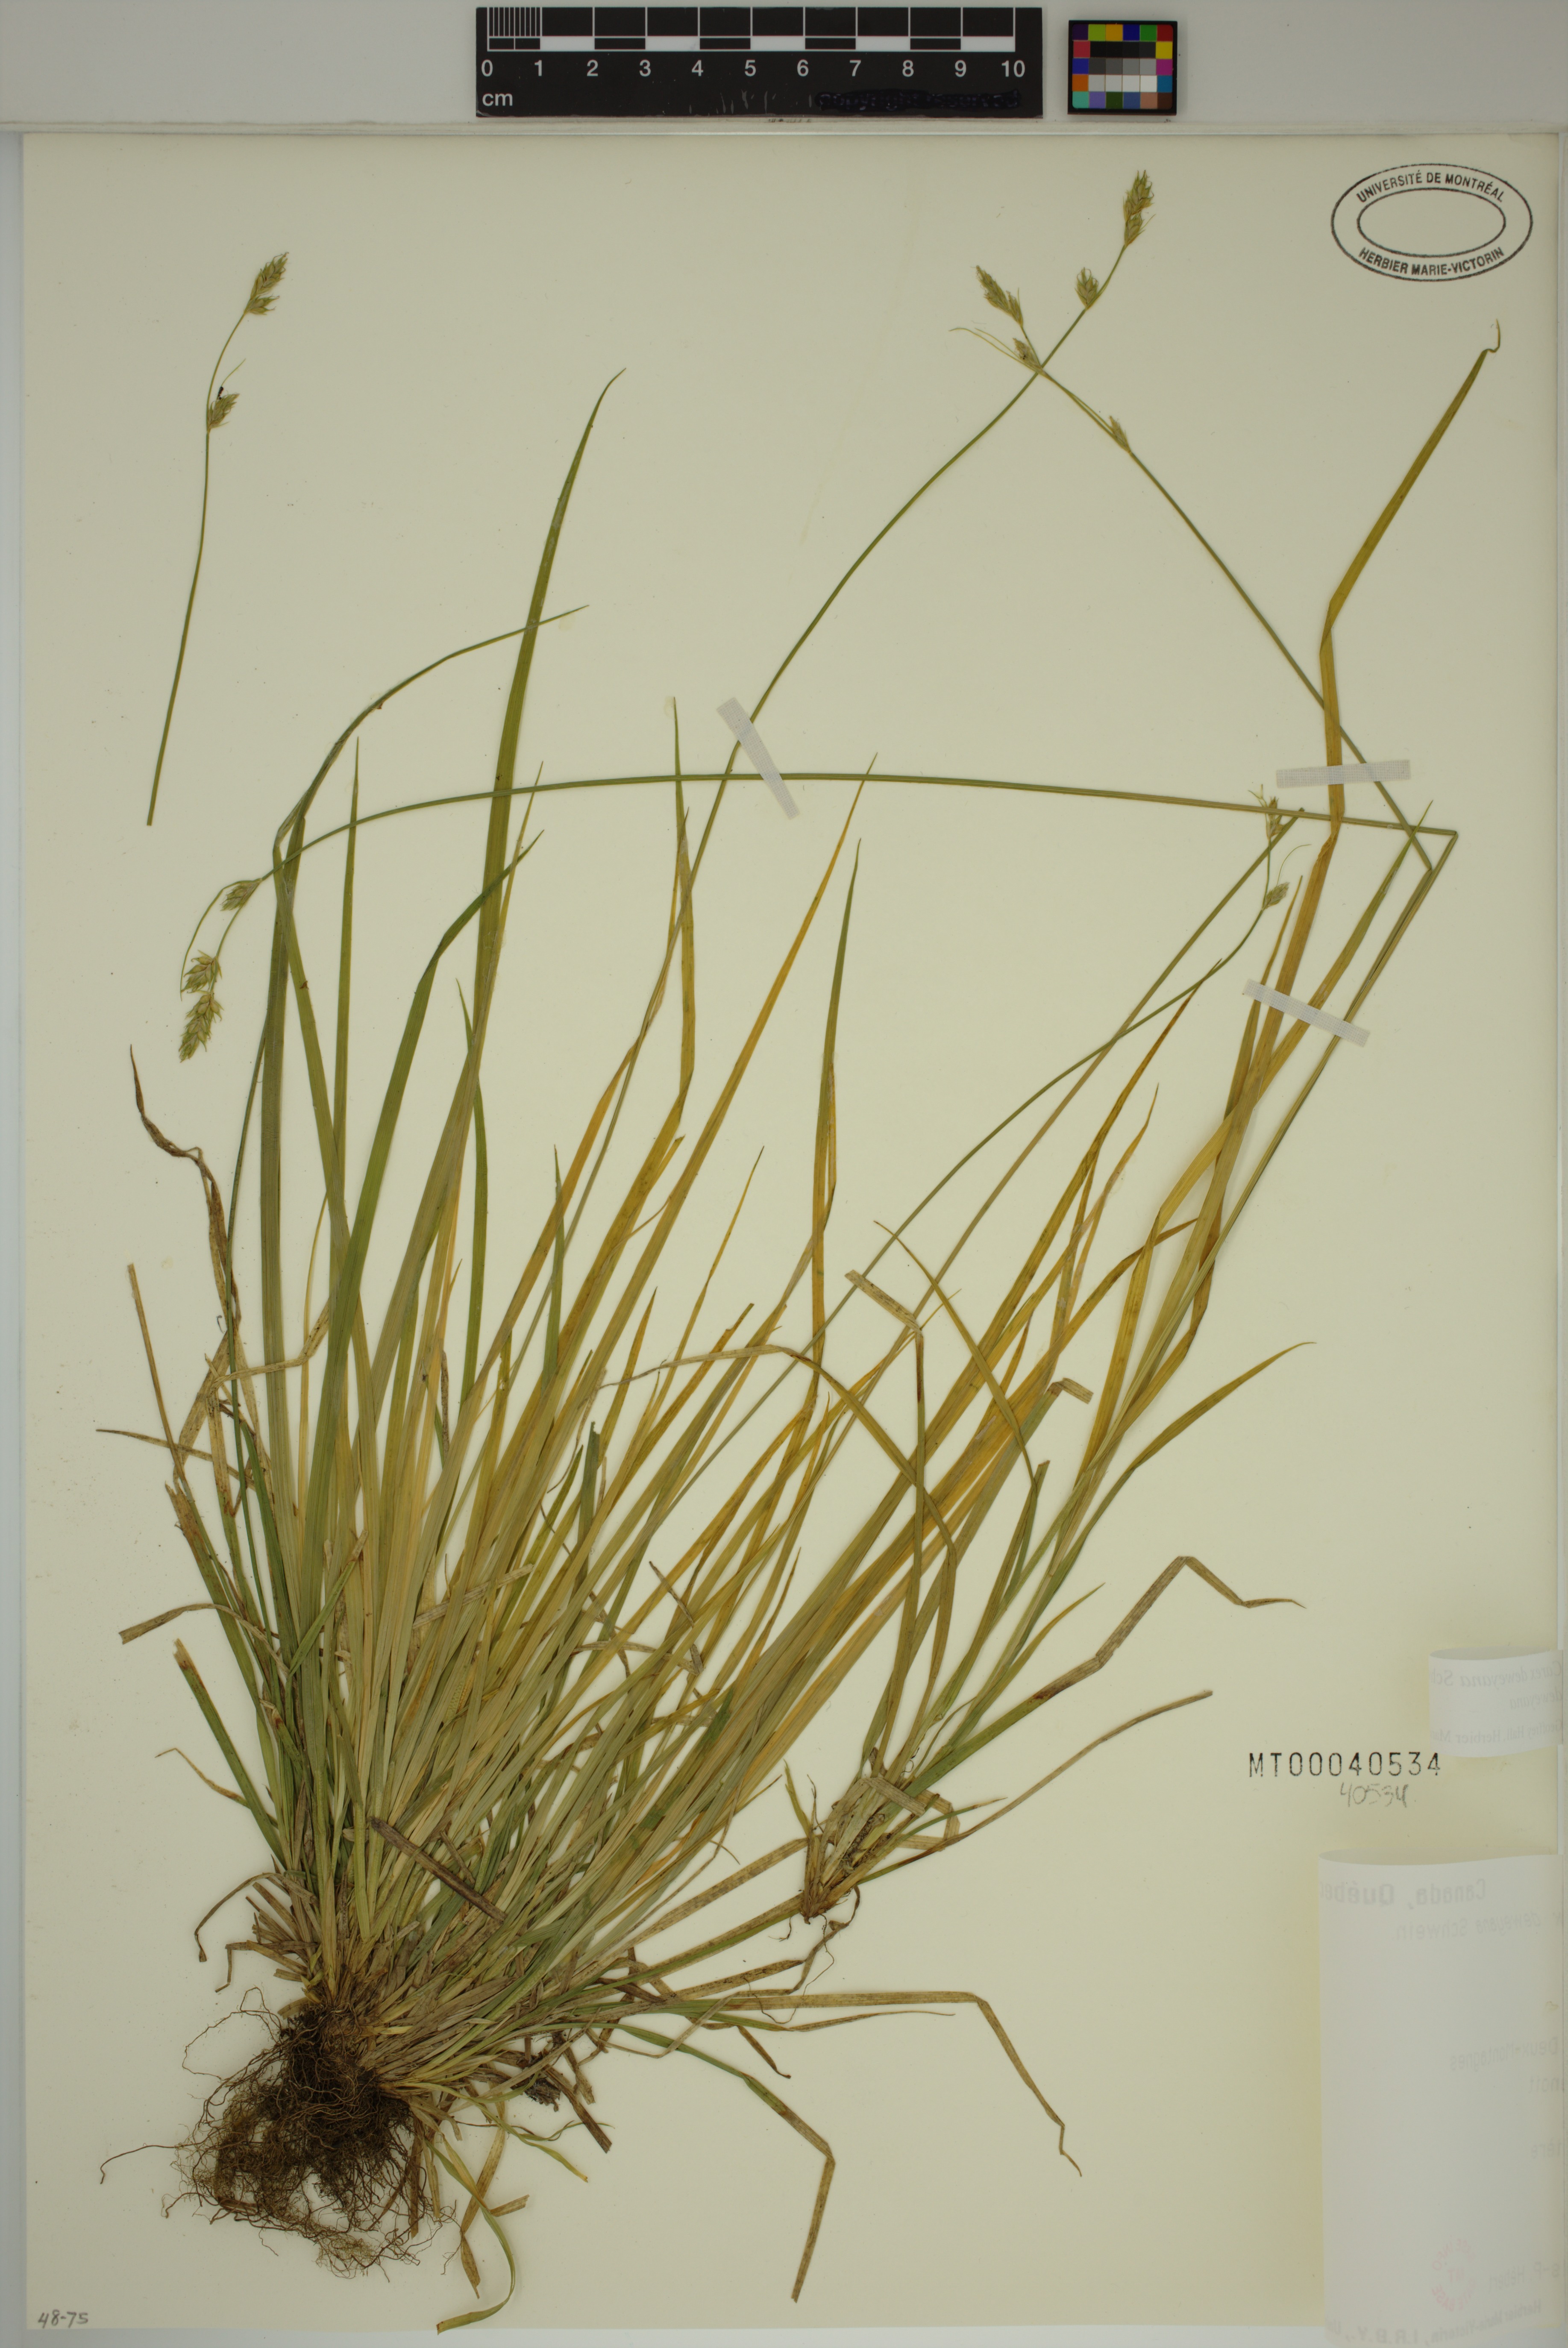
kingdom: Plantae
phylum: Tracheophyta
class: Liliopsida
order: Poales
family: Cyperaceae
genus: Carex
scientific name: Carex deweyana
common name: Dewey's sedge
